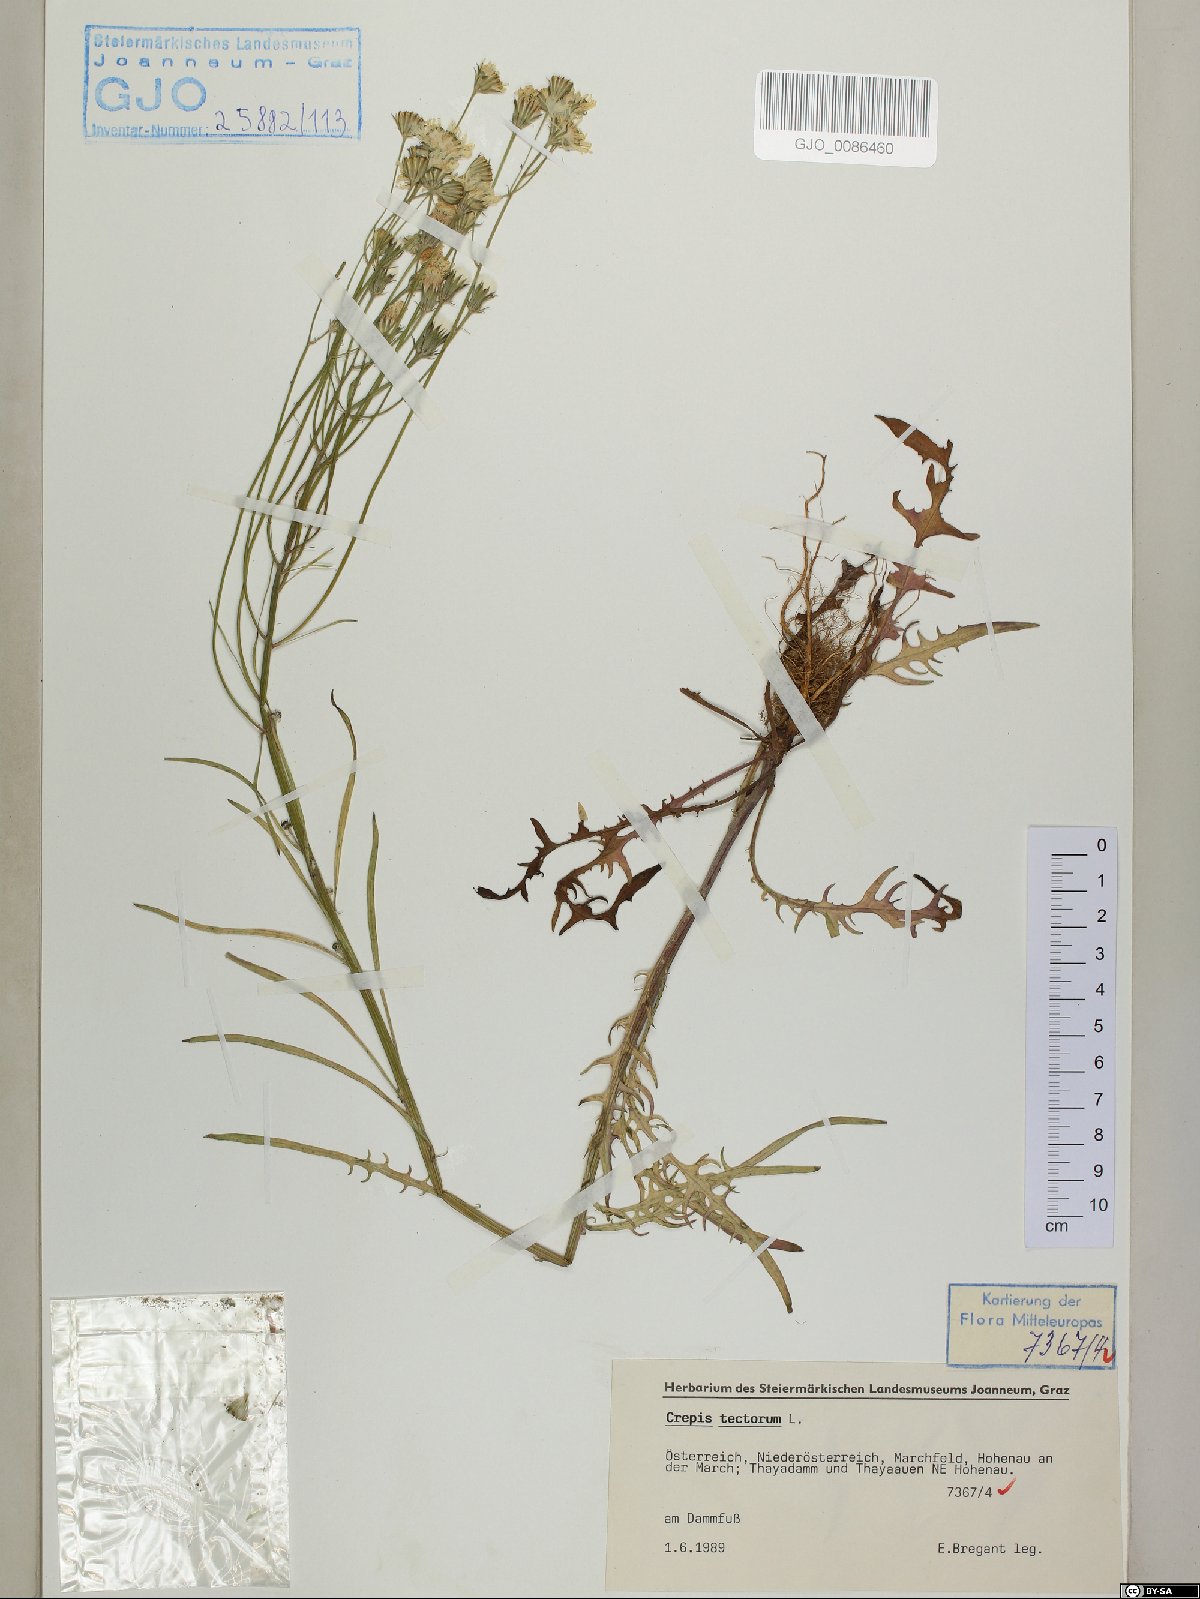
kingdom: Plantae
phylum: Tracheophyta
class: Magnoliopsida
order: Asterales
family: Asteraceae
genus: Crepis
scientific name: Crepis tectorum
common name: Narrow-leaved hawk's-beard
